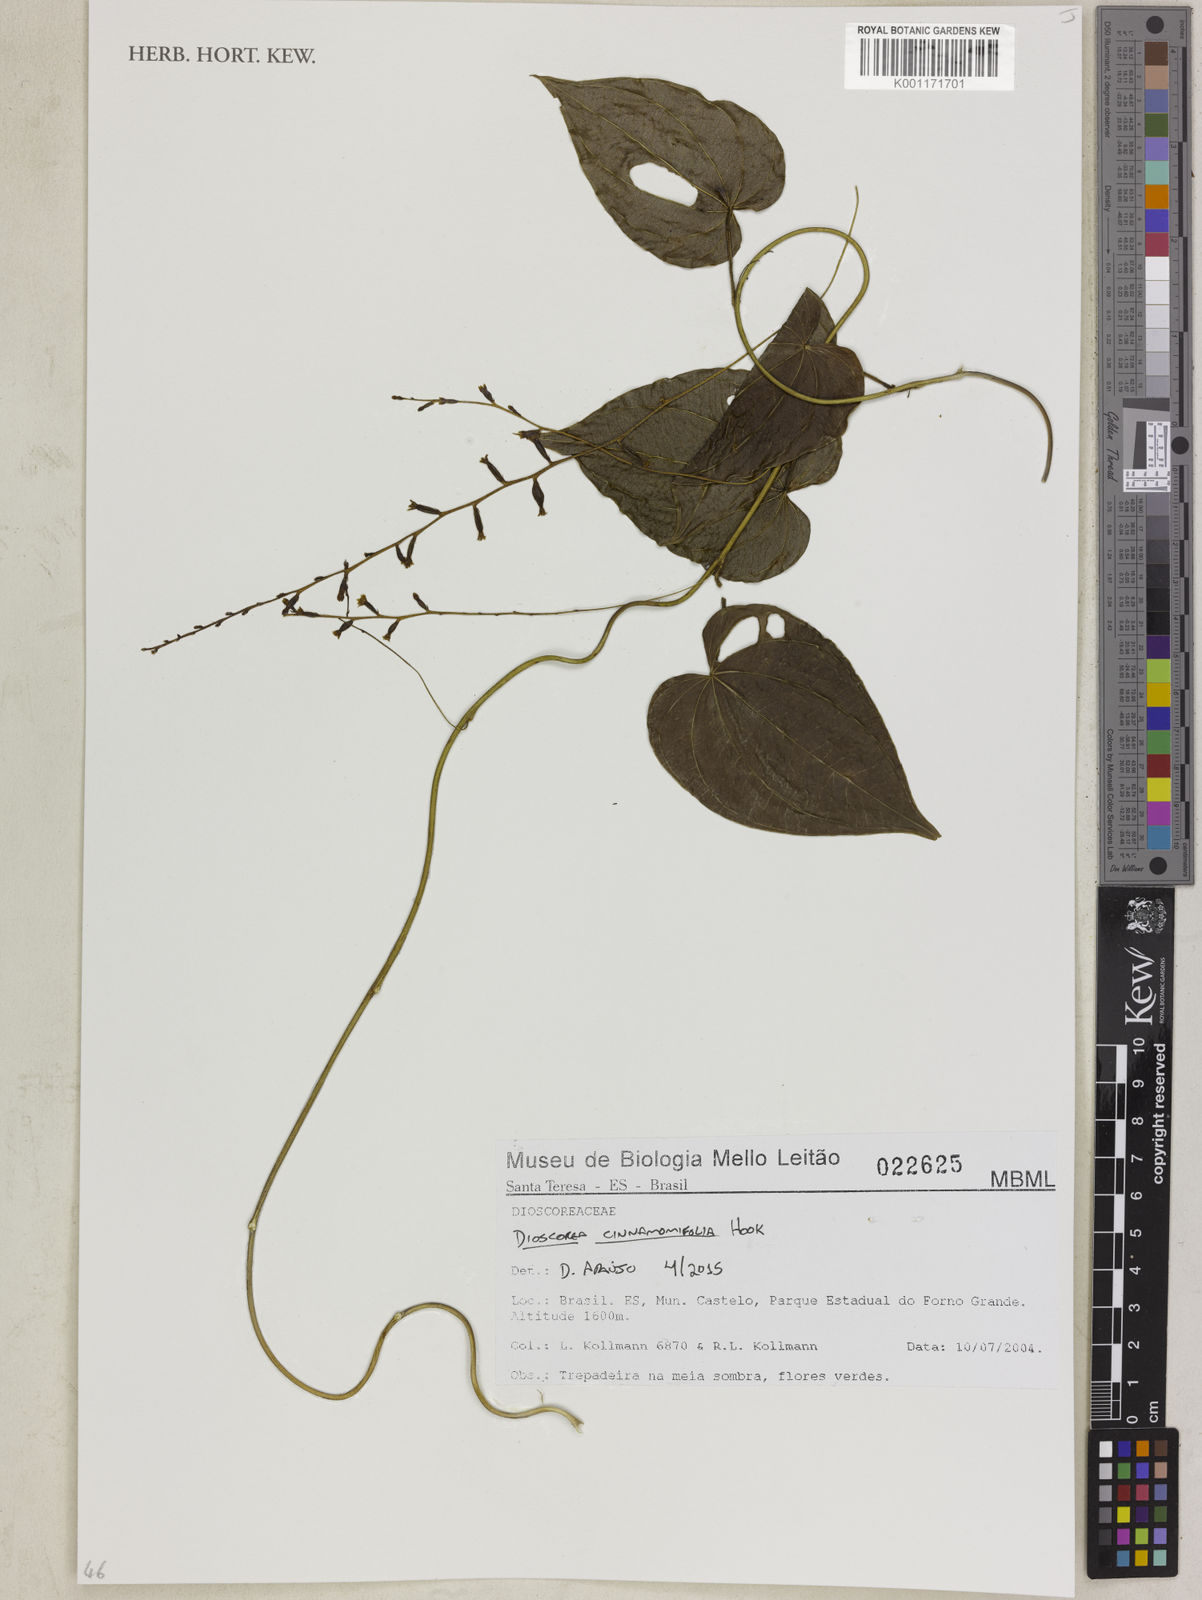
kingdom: Plantae
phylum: Tracheophyta
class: Liliopsida
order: Dioscoreales
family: Dioscoreaceae
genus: Dioscorea
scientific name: Dioscorea cinnamomifolia
